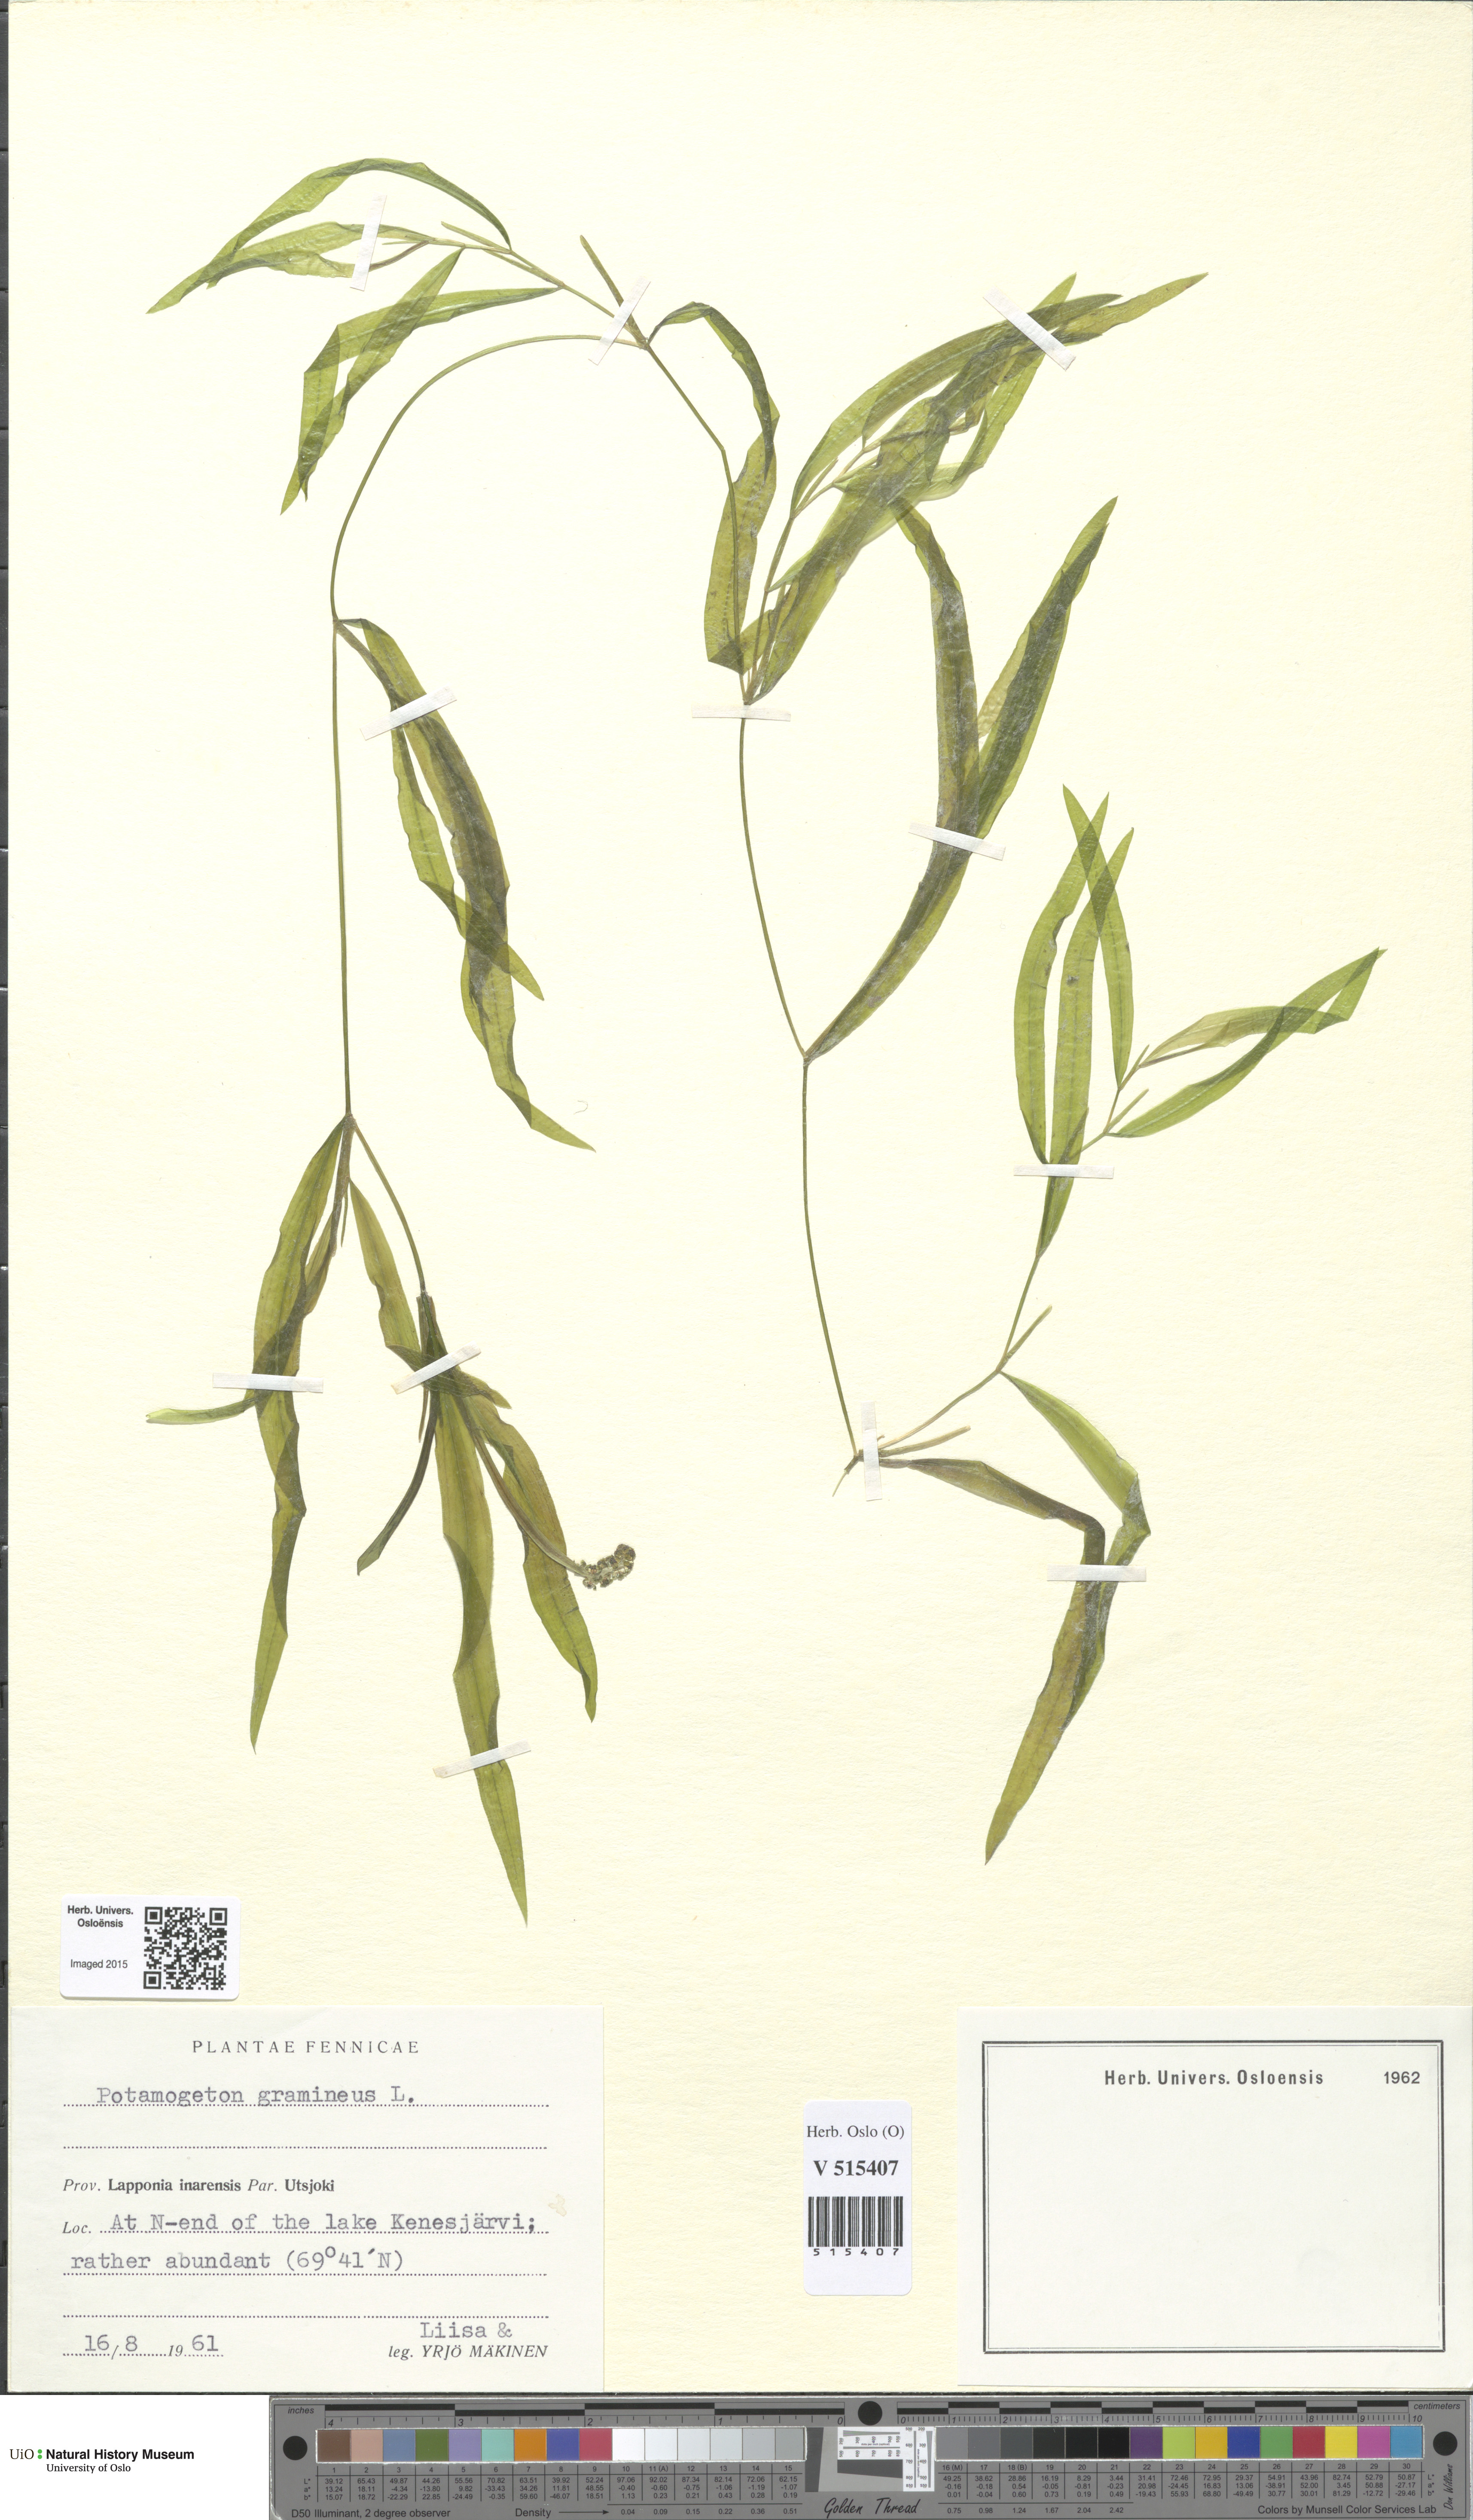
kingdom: Plantae
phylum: Tracheophyta
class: Liliopsida
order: Alismatales
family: Potamogetonaceae
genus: Potamogeton
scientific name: Potamogeton gramineus
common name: Various-leaved pondweed
